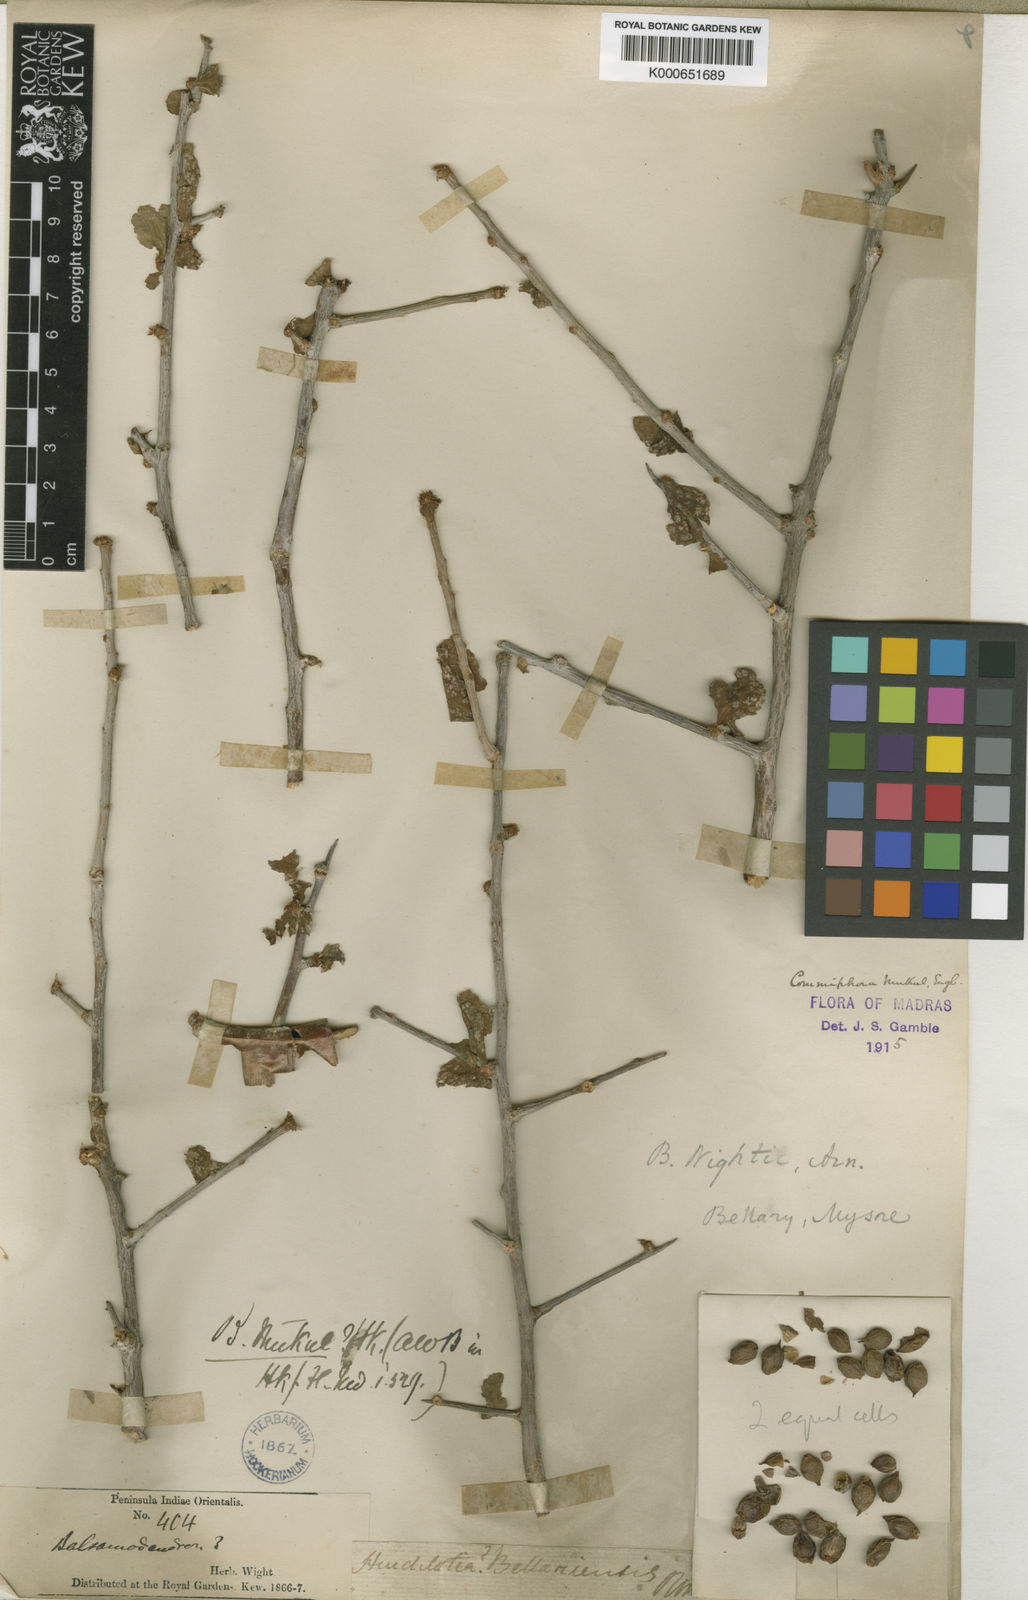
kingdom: Plantae
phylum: Tracheophyta
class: Magnoliopsida
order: Sapindales
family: Burseraceae
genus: Commiphora
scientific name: Commiphora wightii
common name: Indian bdellium-tree
